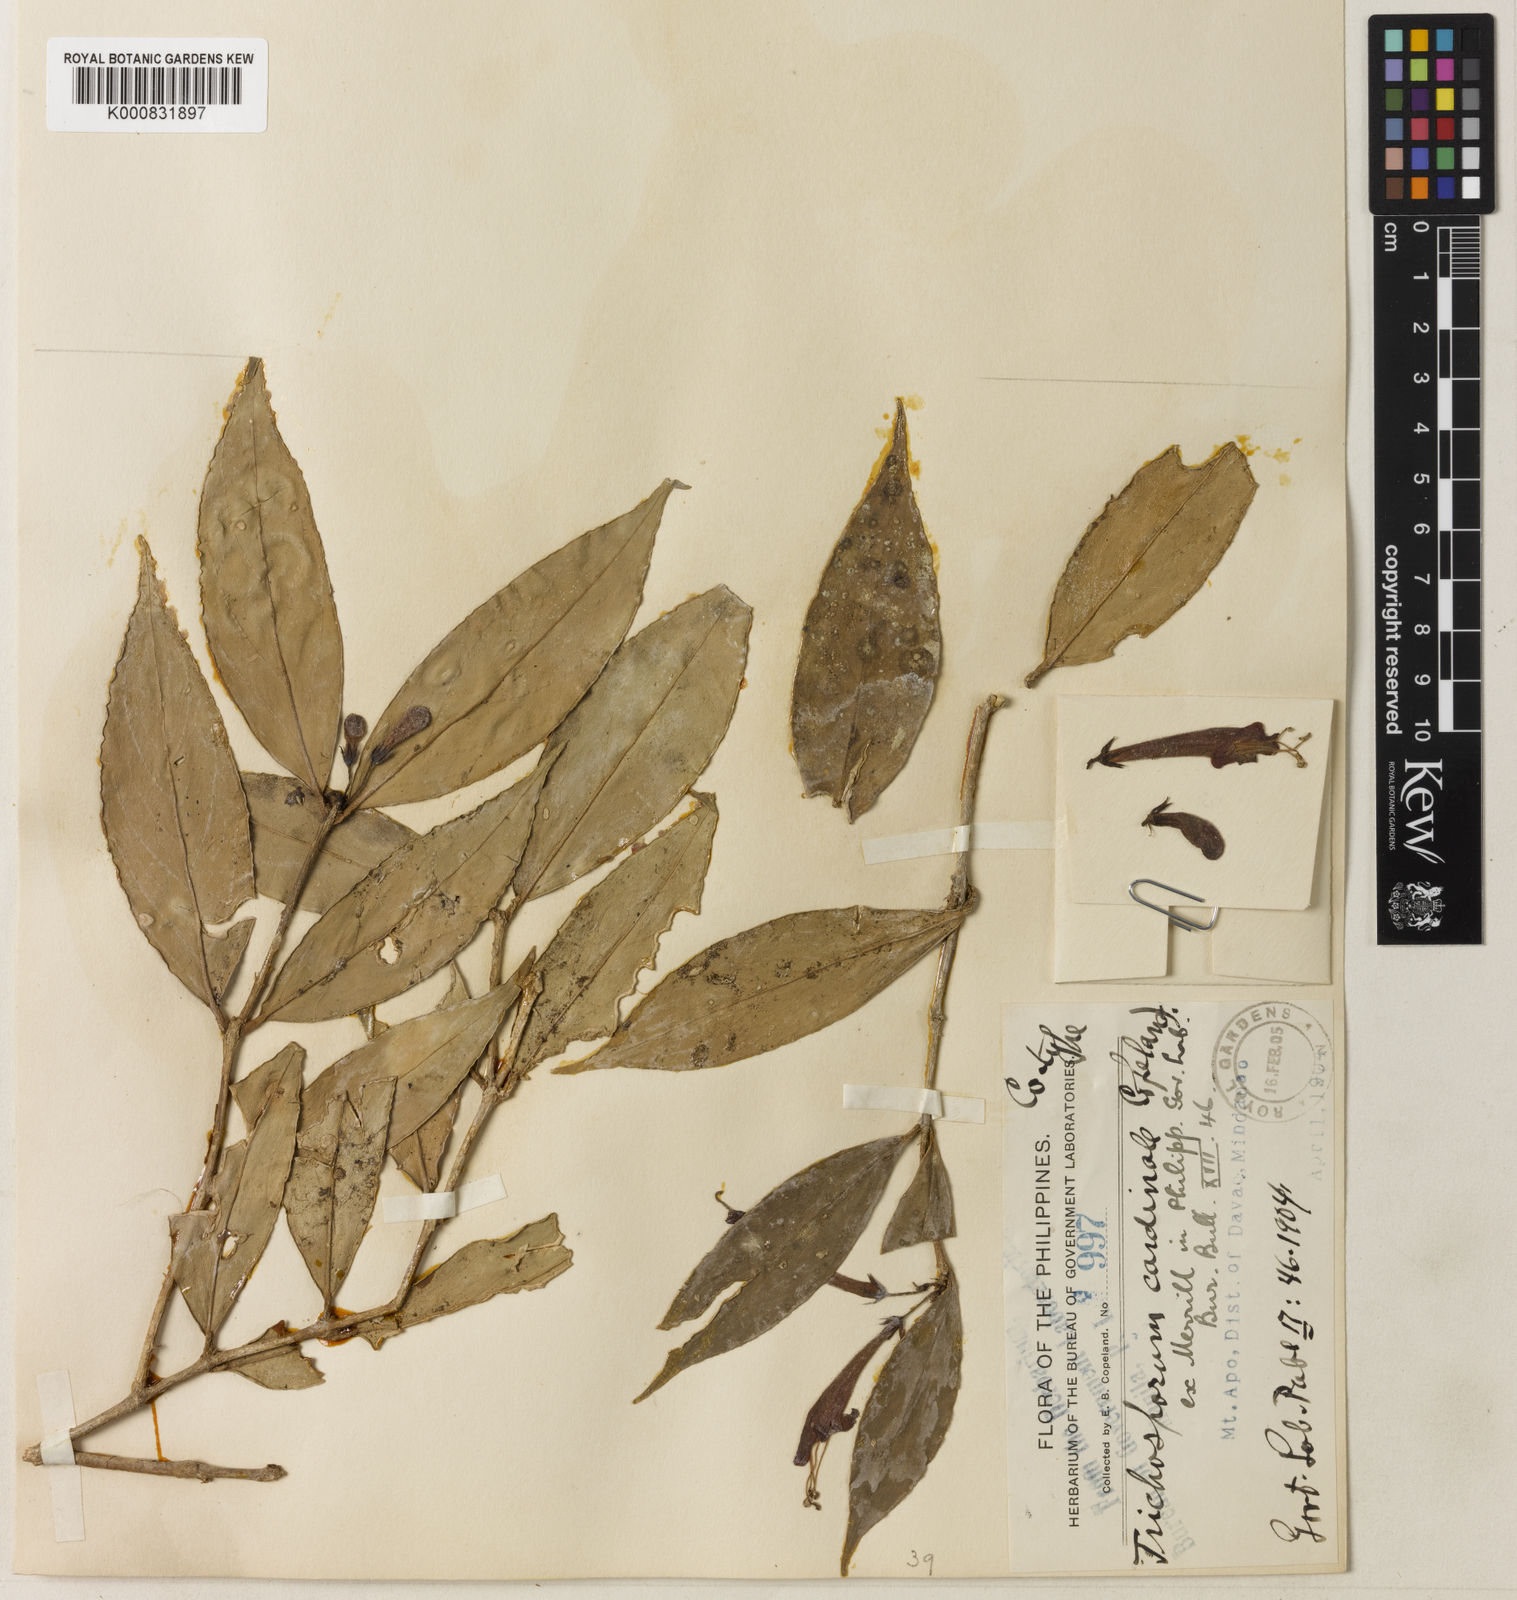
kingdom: Plantae
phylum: Tracheophyta
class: Magnoliopsida
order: Lamiales
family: Gesneriaceae
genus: Aeschynanthus
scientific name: Aeschynanthus cardinalis
